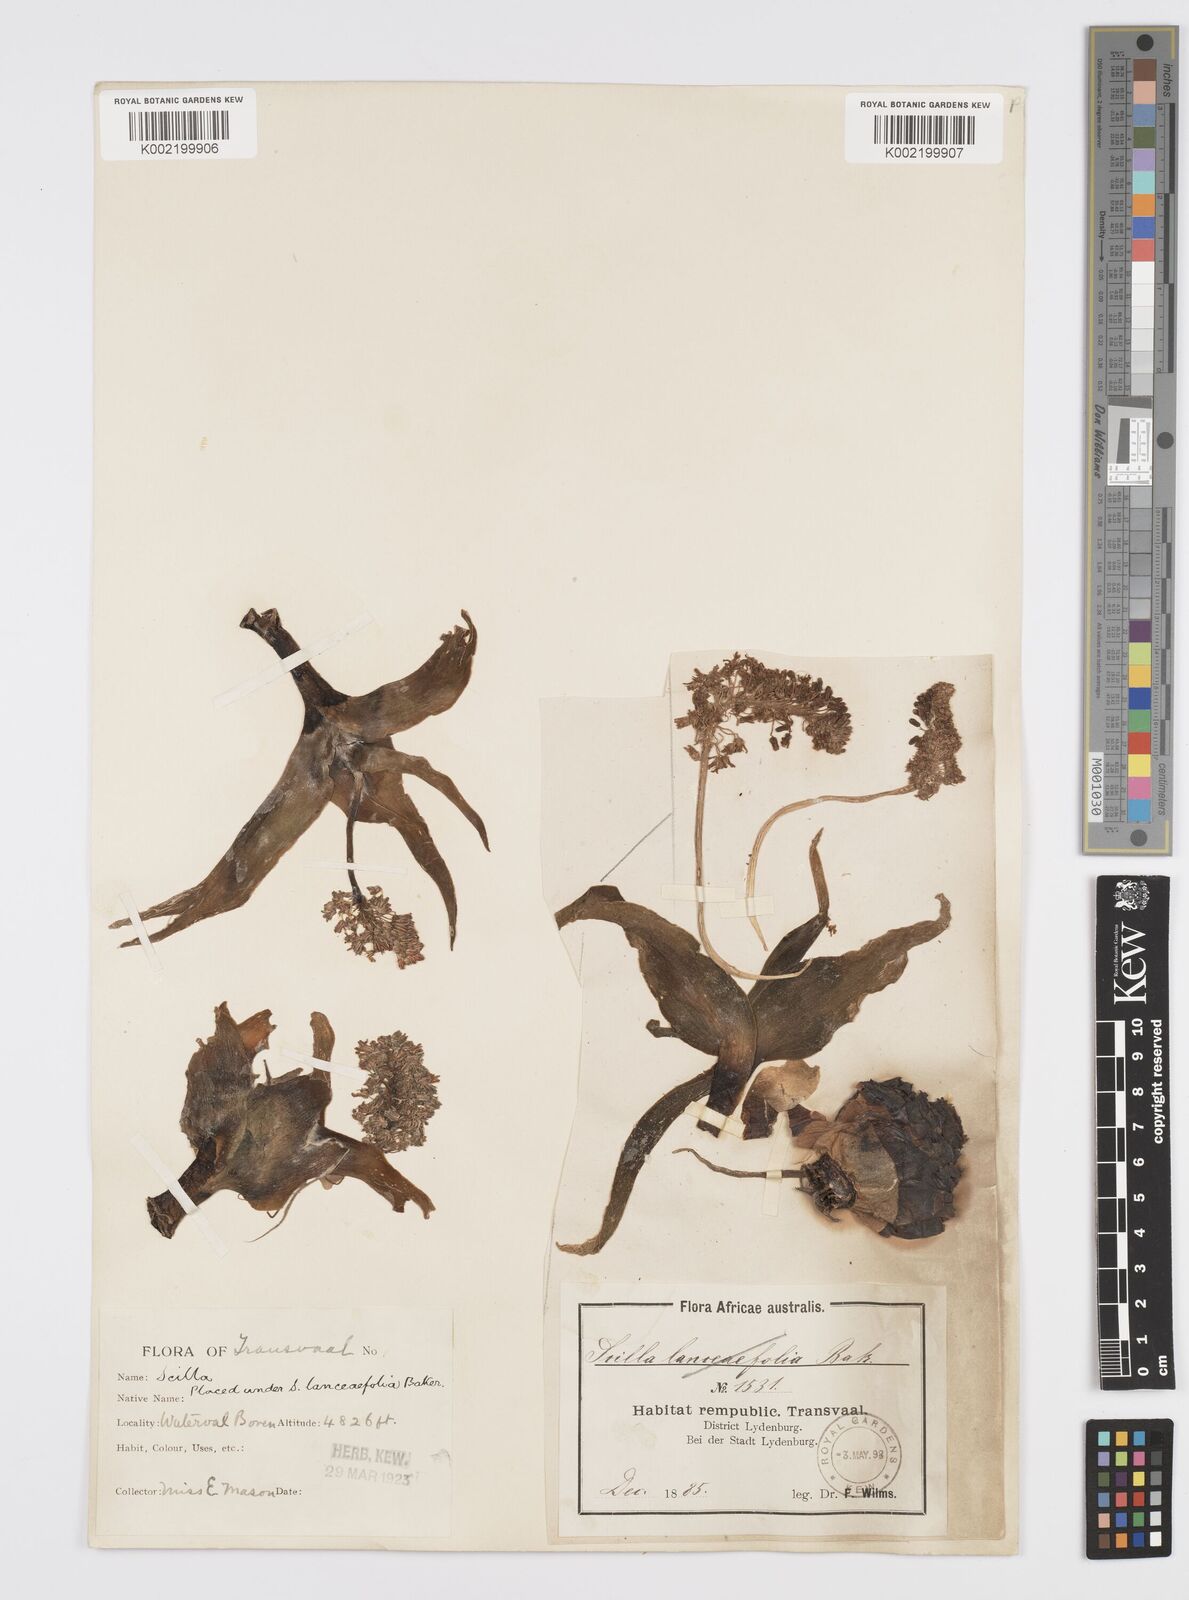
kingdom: Plantae
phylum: Tracheophyta
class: Liliopsida
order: Asparagales
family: Asparagaceae
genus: Ledebouria
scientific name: Ledebouria revoluta
